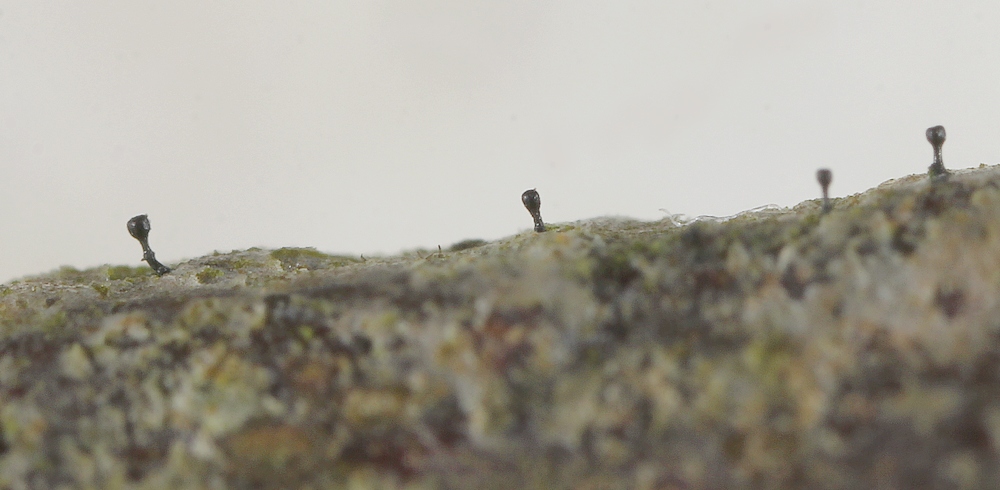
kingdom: Fungi
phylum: Ascomycota
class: Eurotiomycetes
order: Mycocaliciales
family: Mycocaliciaceae
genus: Stenocybe
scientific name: Stenocybe pullatula
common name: elle-nålesvamp
